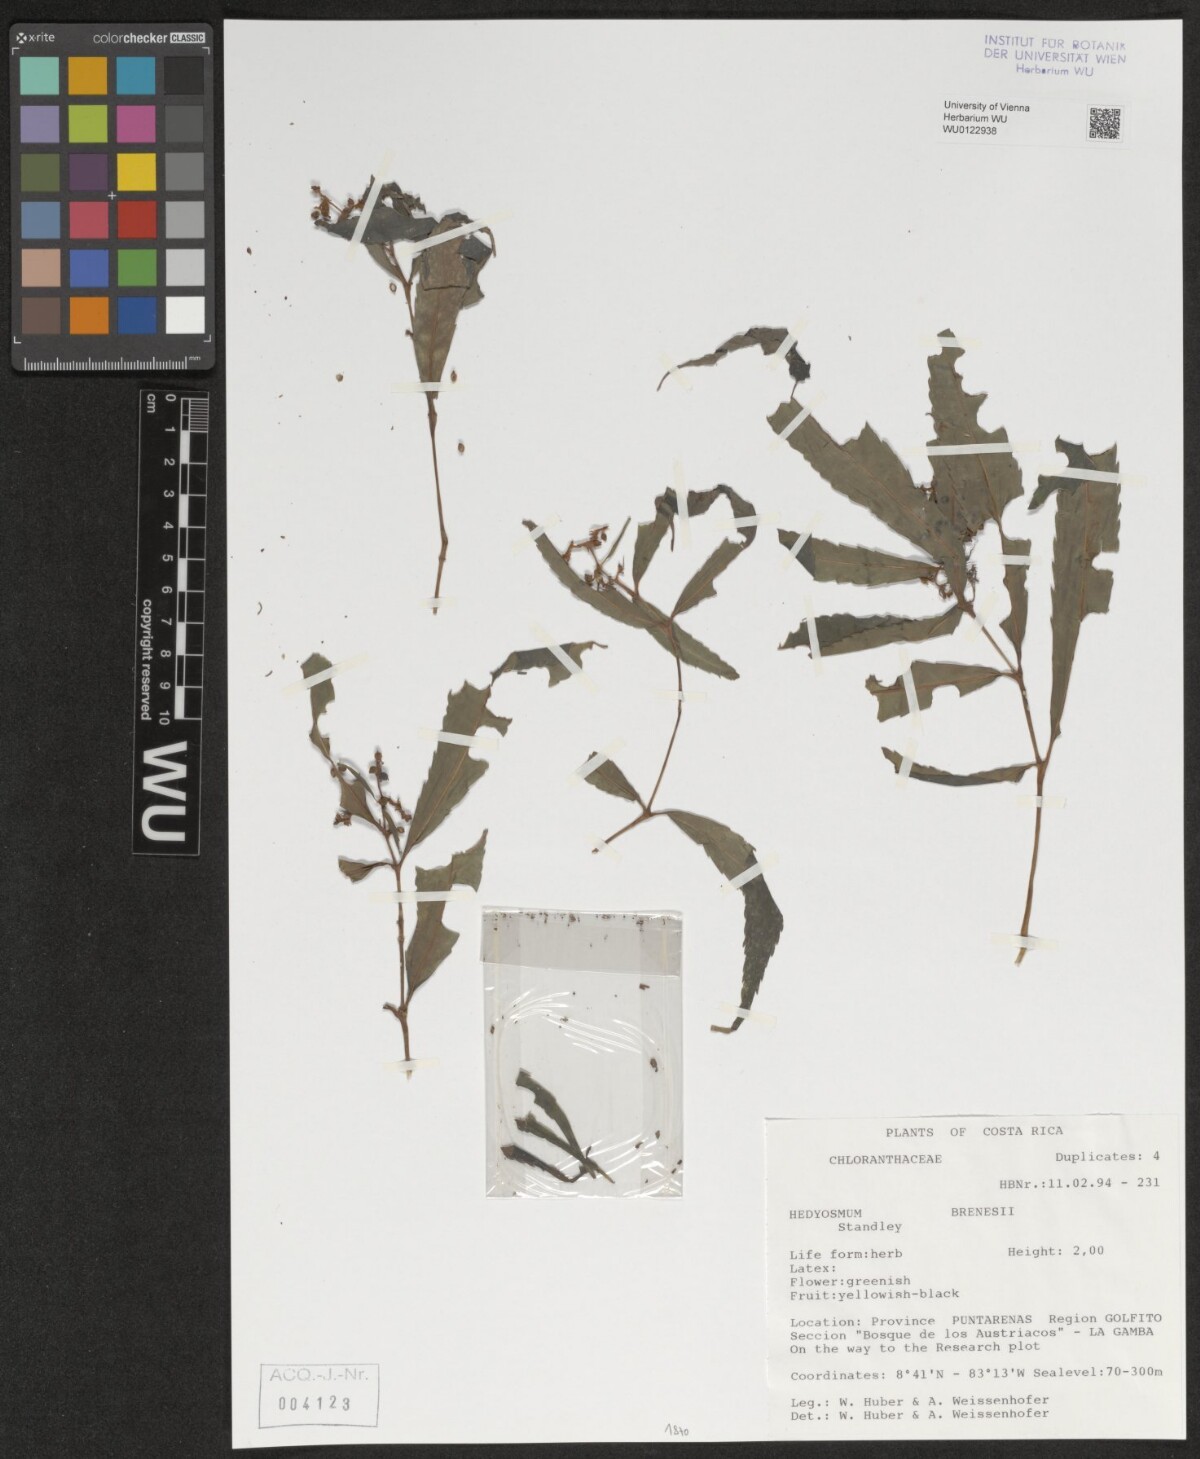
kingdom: Plantae
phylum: Tracheophyta
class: Magnoliopsida
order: Chloranthales
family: Chloranthaceae
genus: Hedyosmum
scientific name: Hedyosmum brenesii
